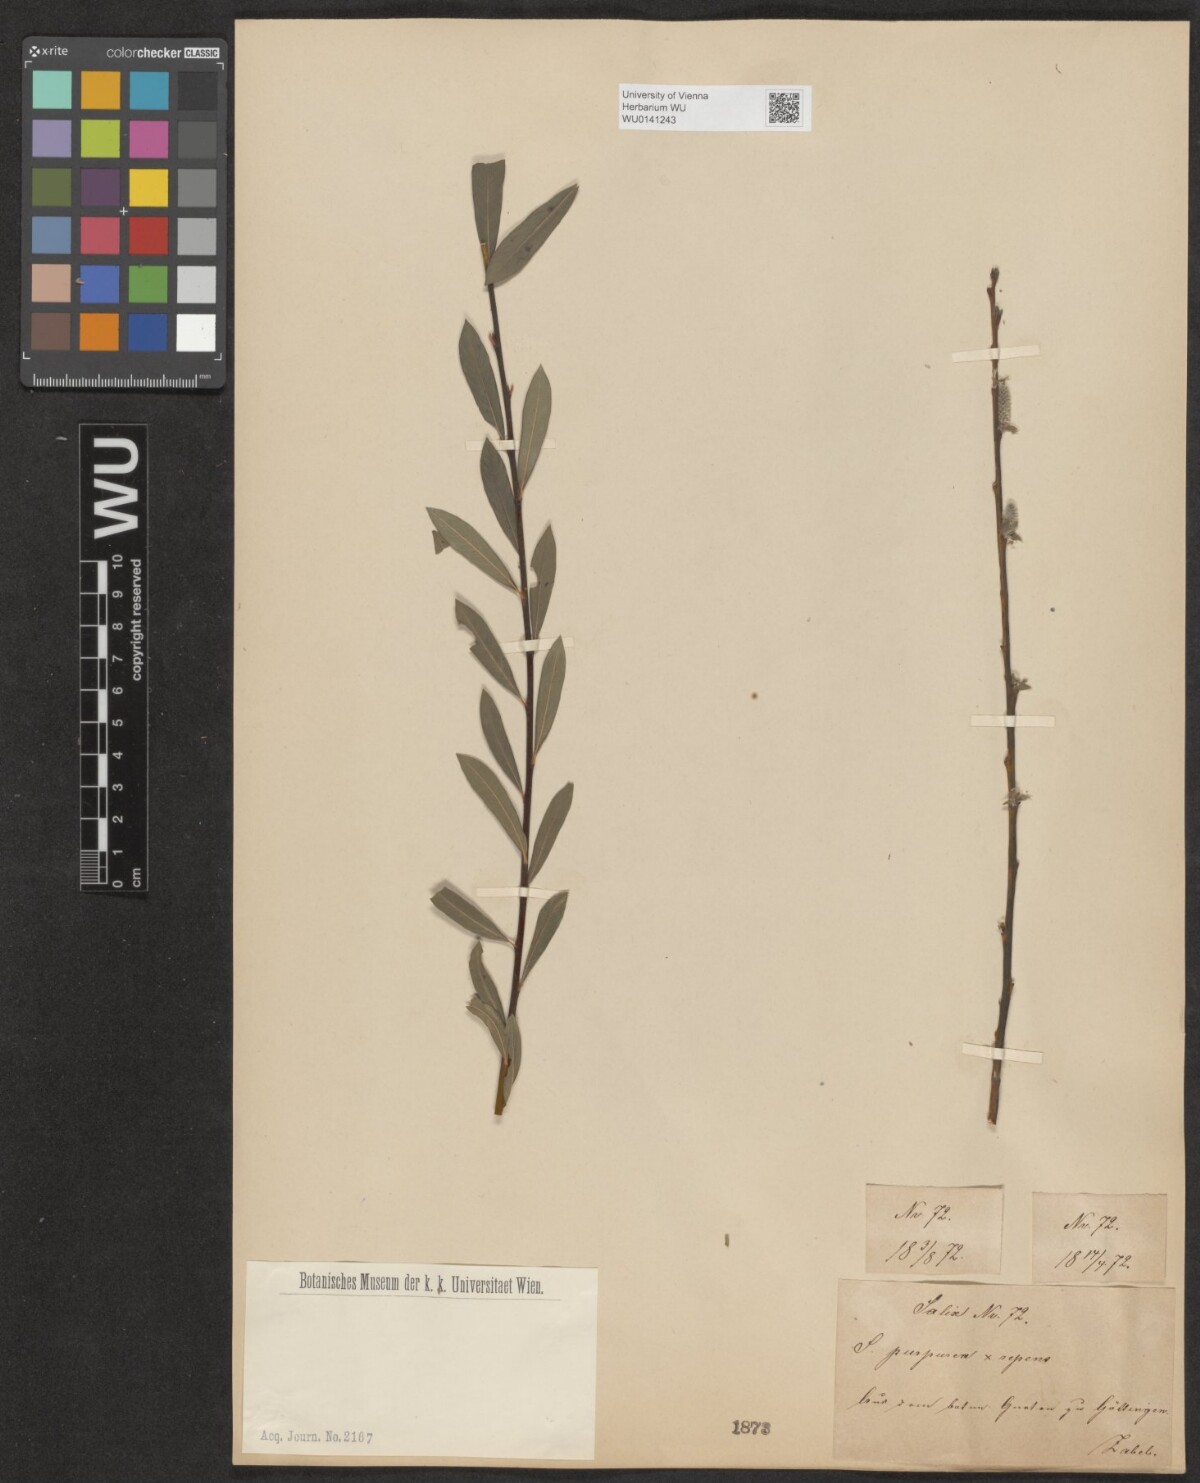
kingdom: Plantae
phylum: Tracheophyta
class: Magnoliopsida
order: Malpighiales
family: Salicaceae
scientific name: Salicaceae
